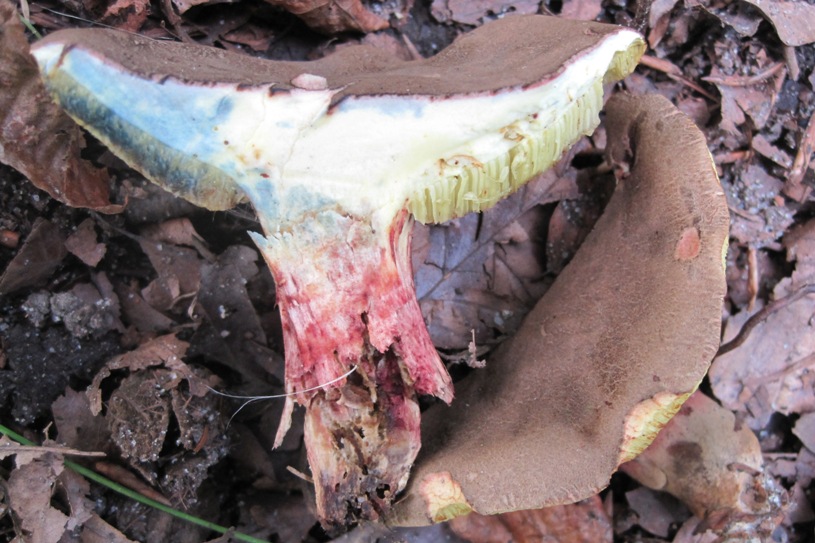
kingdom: Fungi
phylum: Basidiomycota
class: Agaricomycetes
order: Boletales
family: Boletaceae
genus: Xerocomellus
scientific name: Xerocomellus cisalpinus
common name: finsprukken rørhat
